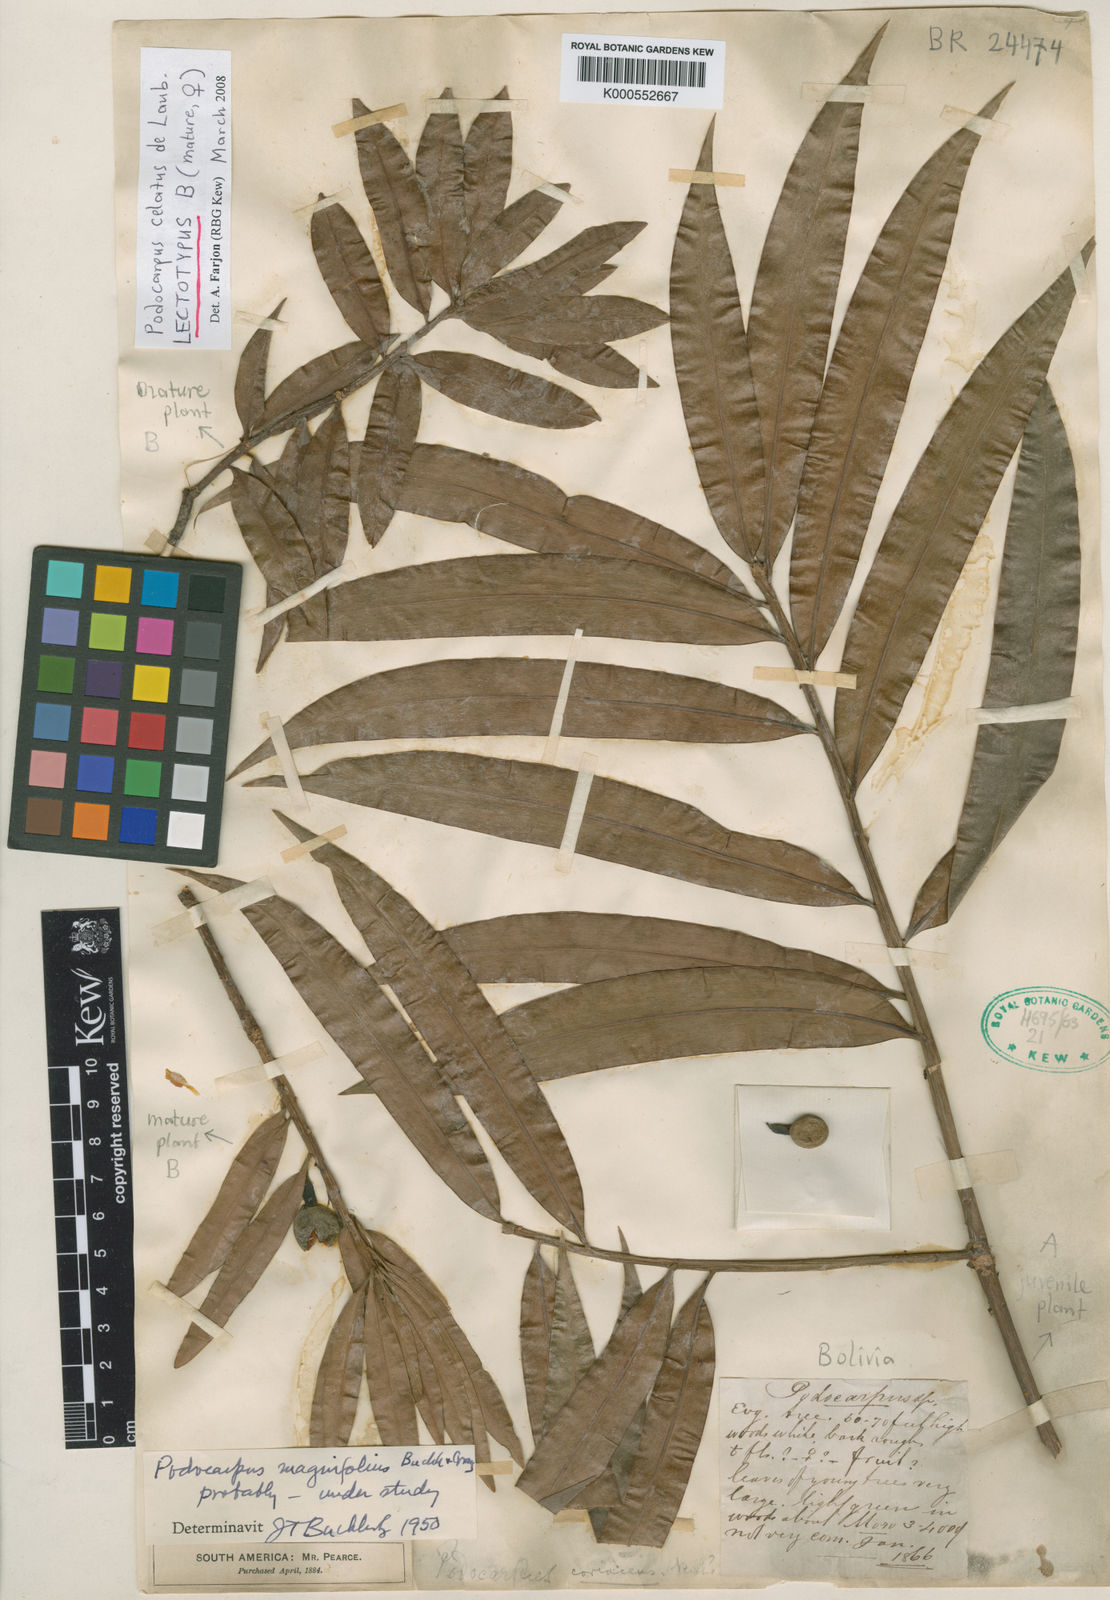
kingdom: Plantae
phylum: Tracheophyta
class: Pinopsida
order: Pinales
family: Podocarpaceae
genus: Podocarpus
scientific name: Podocarpus celatus
